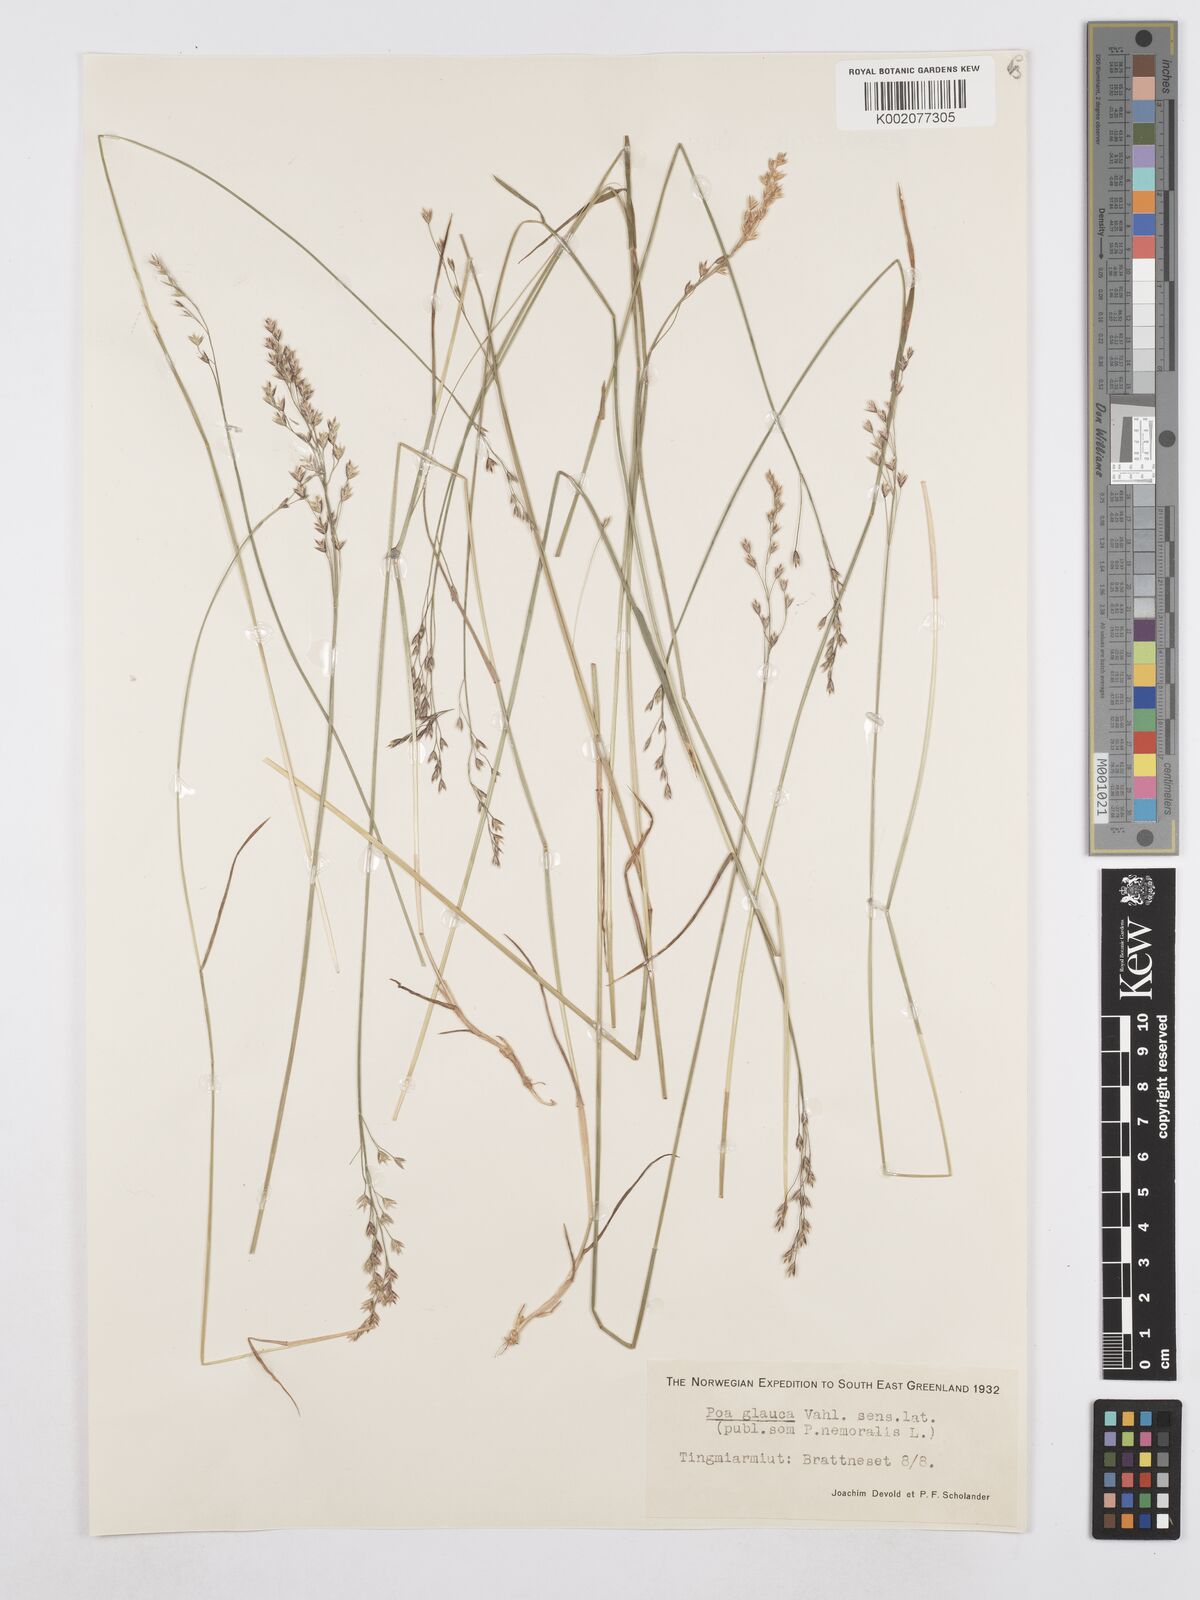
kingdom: Plantae
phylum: Tracheophyta
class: Liliopsida
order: Poales
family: Poaceae
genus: Poa
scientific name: Poa glauca
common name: Glaucous bluegrass
